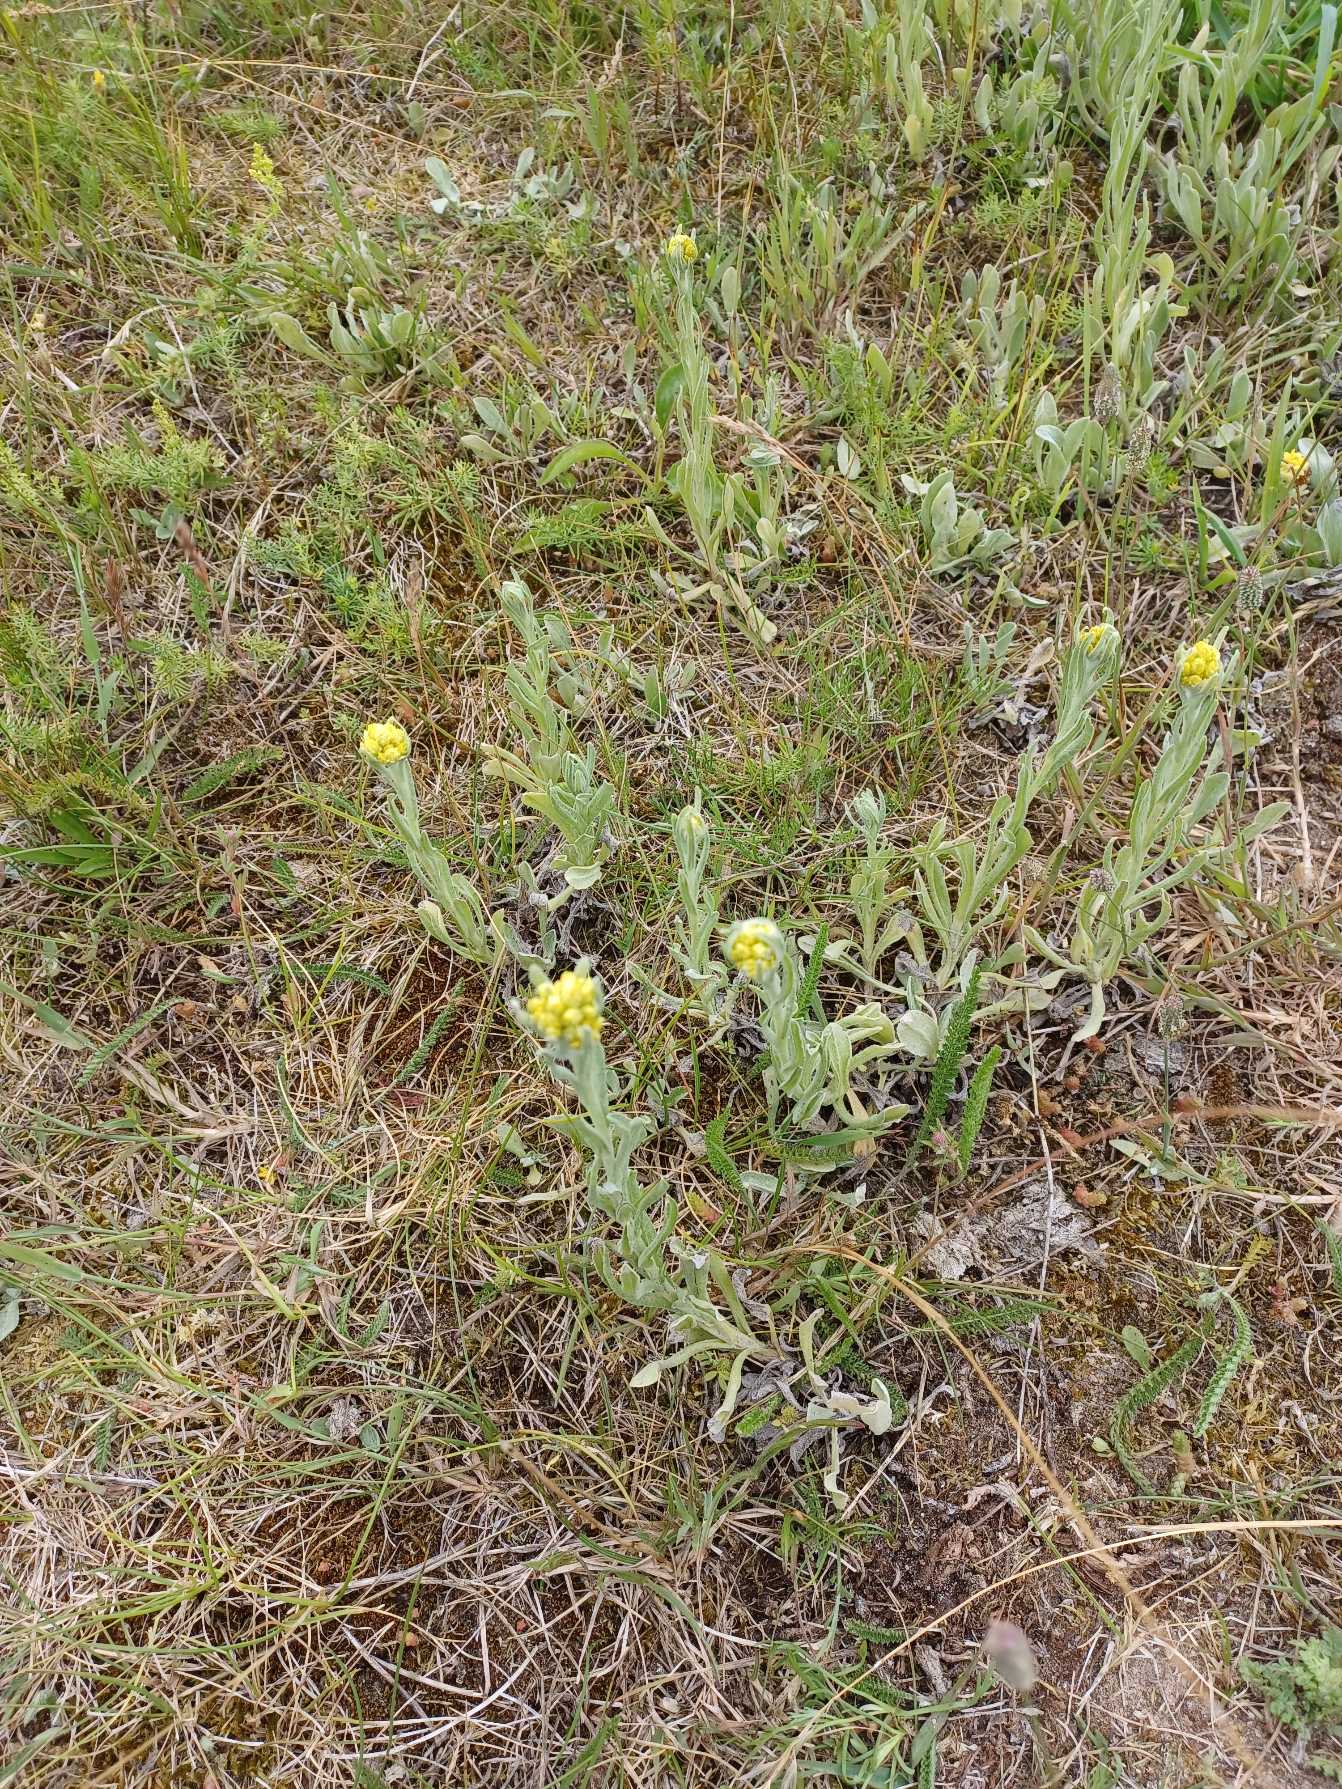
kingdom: Plantae
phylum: Tracheophyta
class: Magnoliopsida
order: Asterales
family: Asteraceae
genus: Helichrysum
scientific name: Helichrysum arenarium
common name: Gul evighedsblomst
